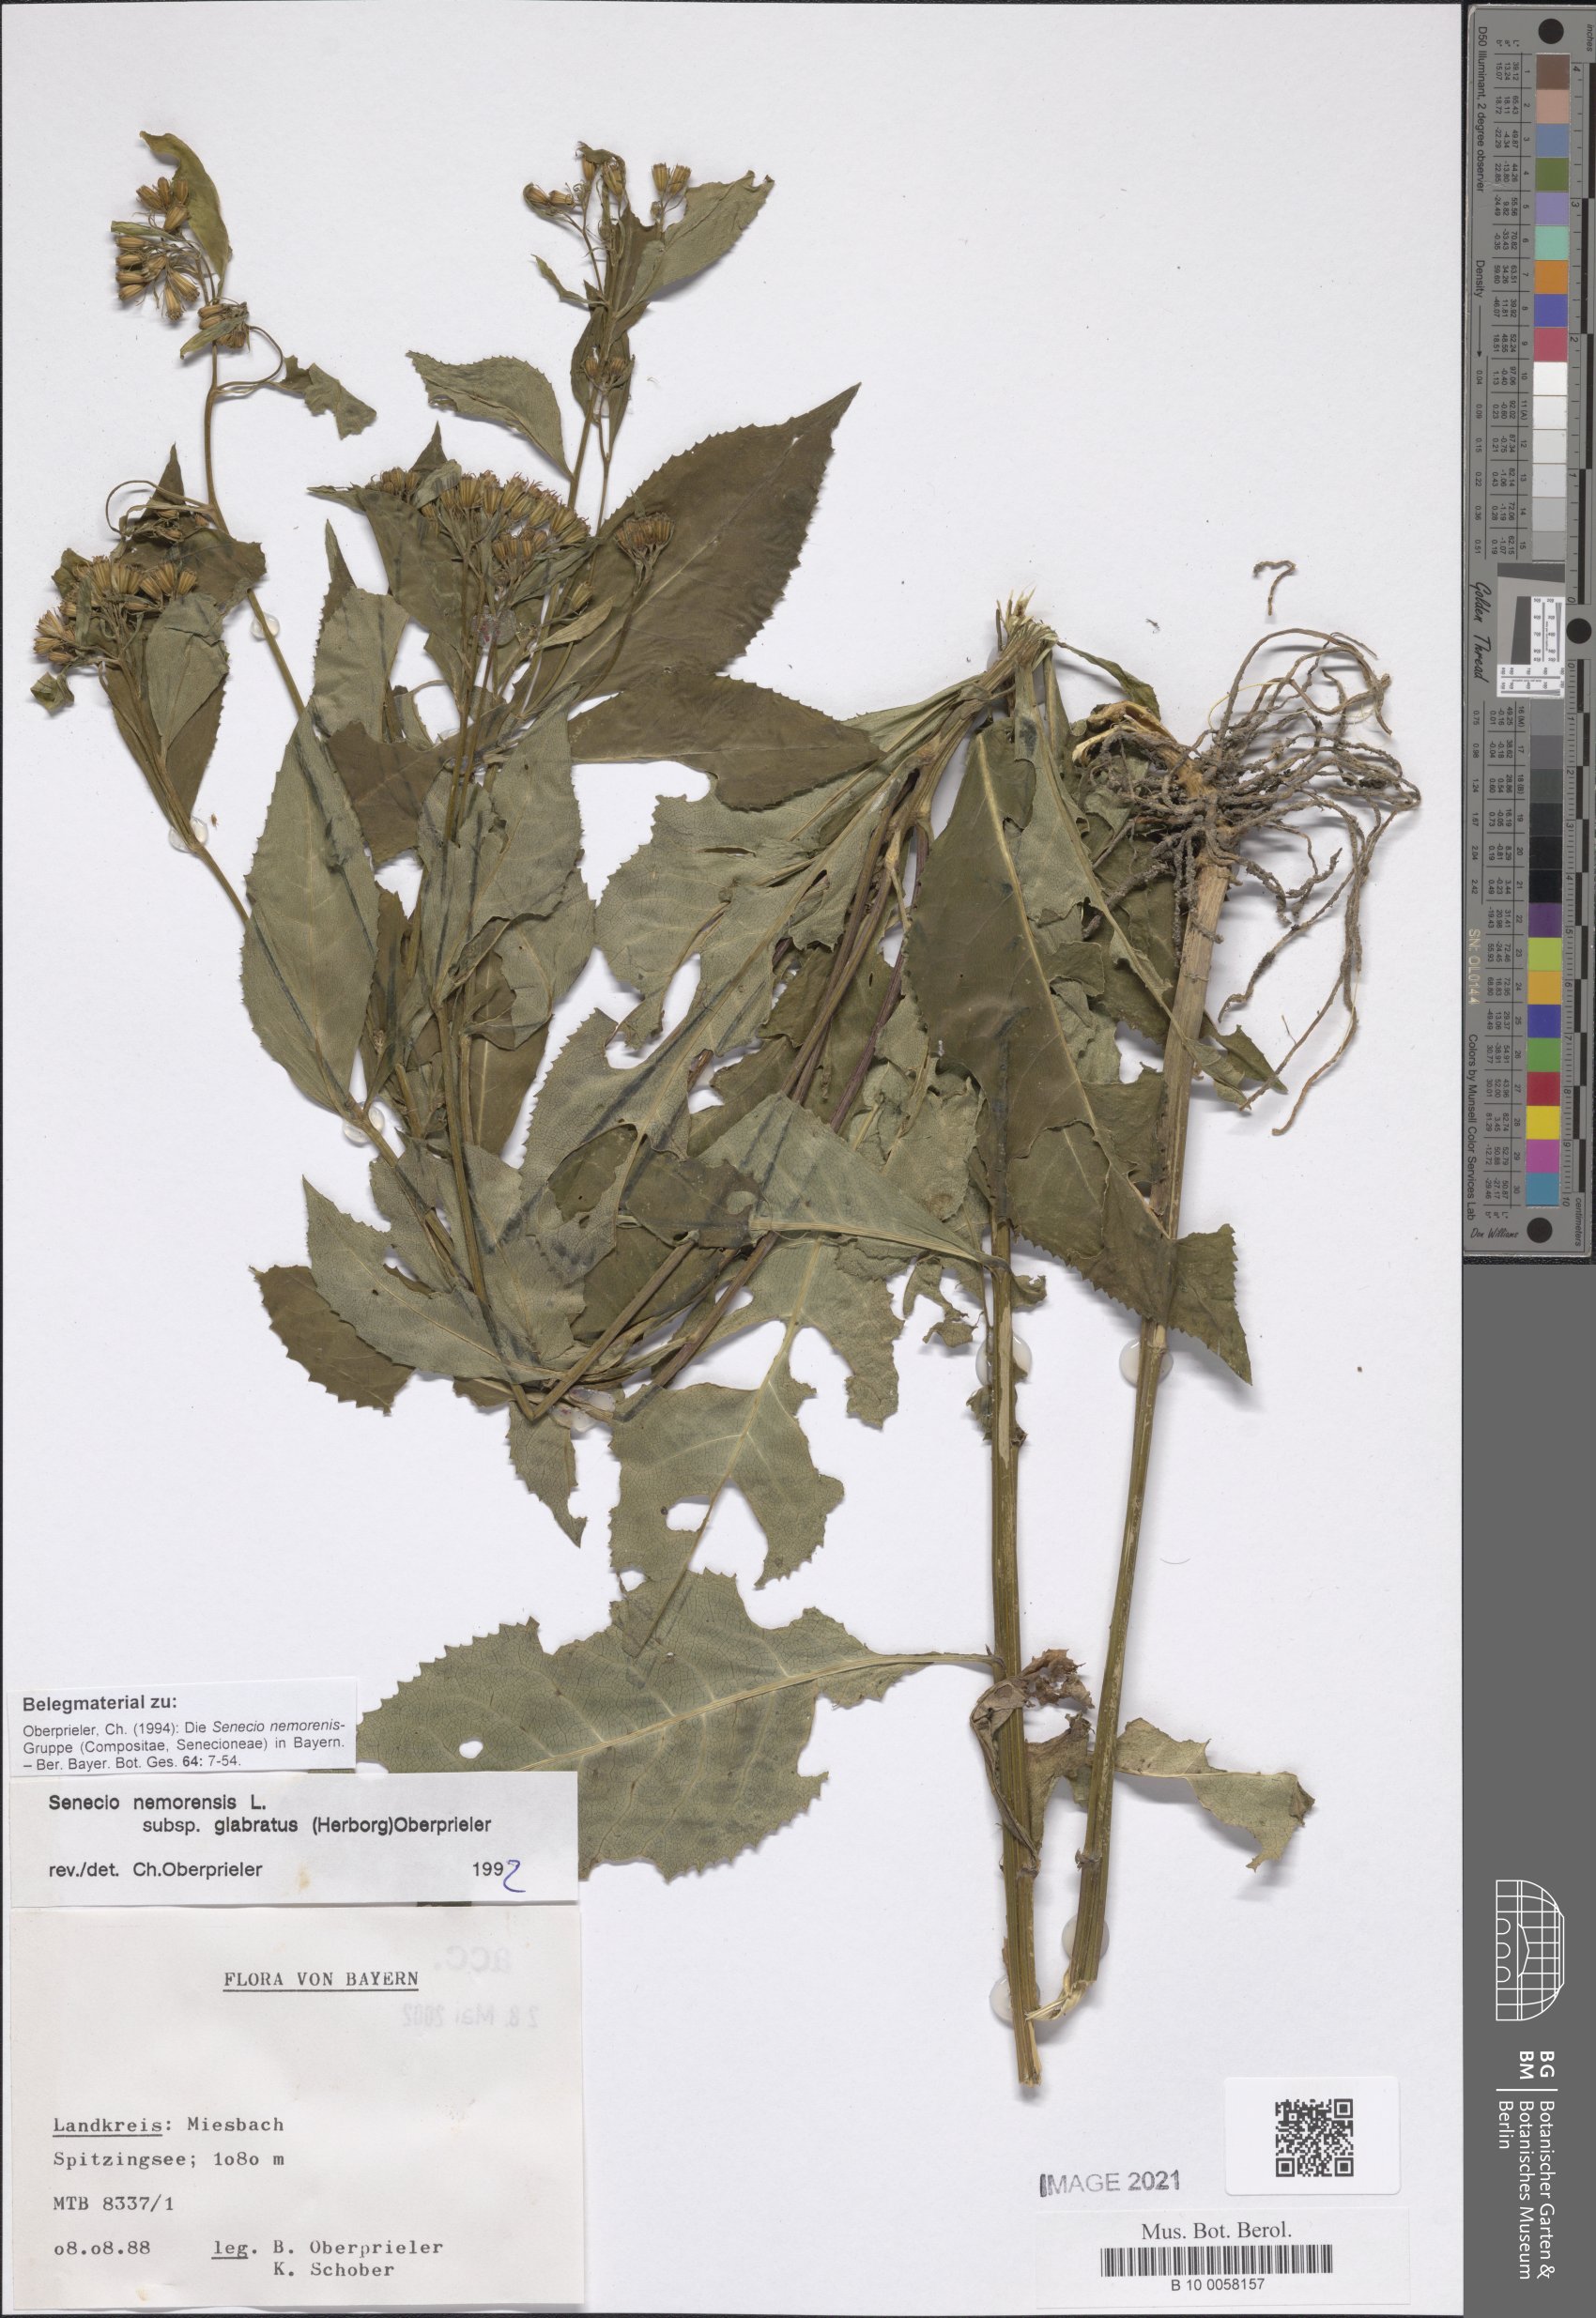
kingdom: Plantae
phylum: Tracheophyta
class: Magnoliopsida
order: Asterales
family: Asteraceae
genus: Senecio
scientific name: Senecio germanicus
